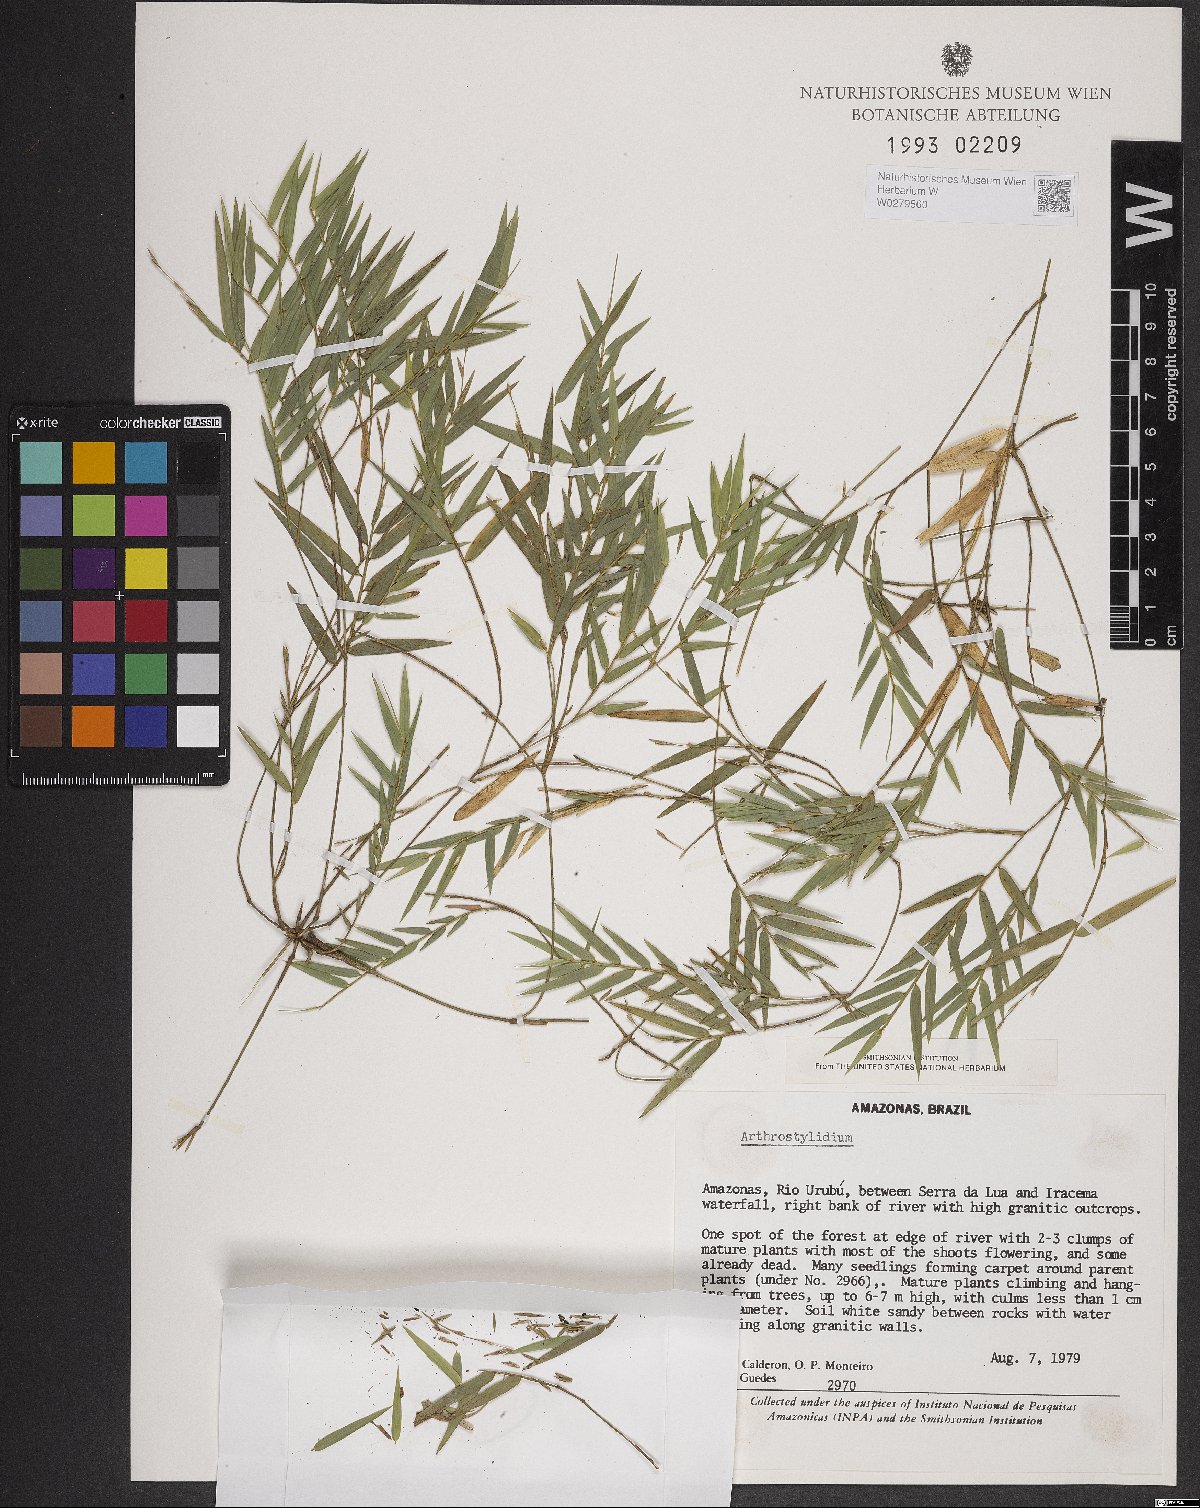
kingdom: Plantae
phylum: Tracheophyta
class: Liliopsida
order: Poales
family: Poaceae
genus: Arthrostylidium
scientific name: Arthrostylidium
